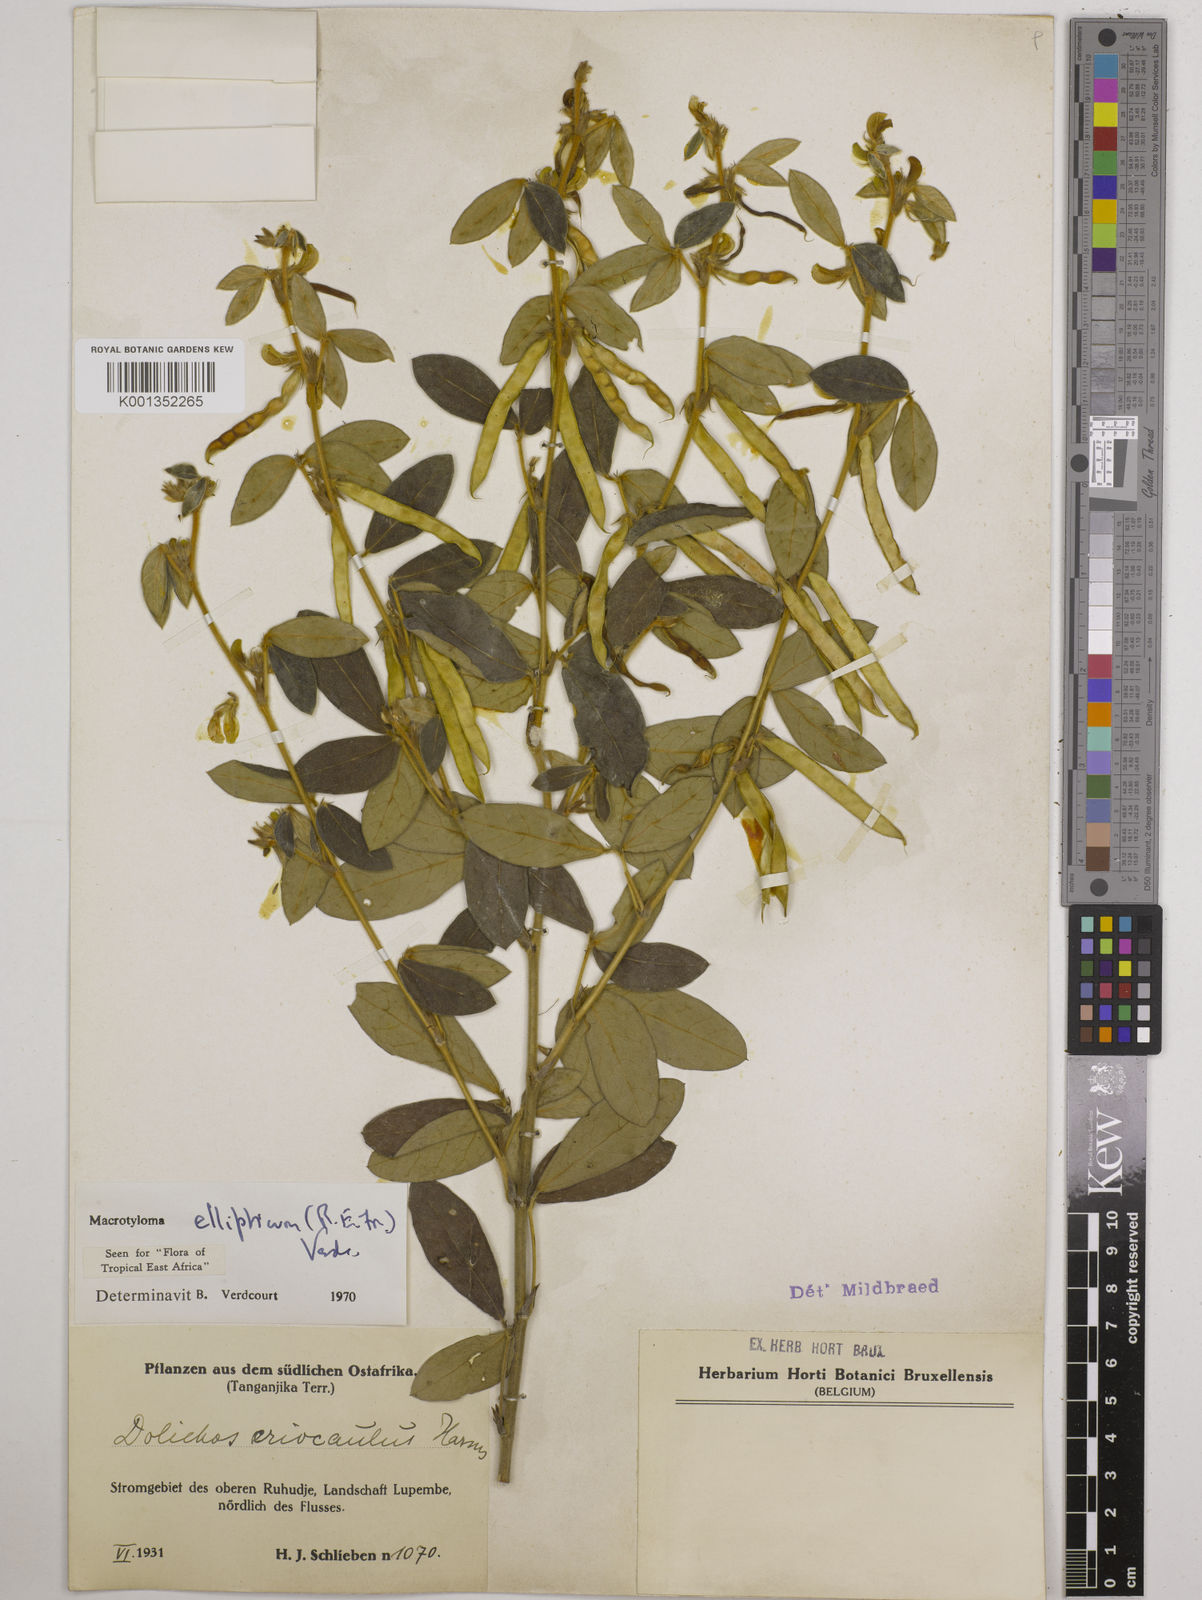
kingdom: Plantae
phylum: Tracheophyta
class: Magnoliopsida
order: Fabales
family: Fabaceae
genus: Macrotyloma
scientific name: Macrotyloma ellipticum
